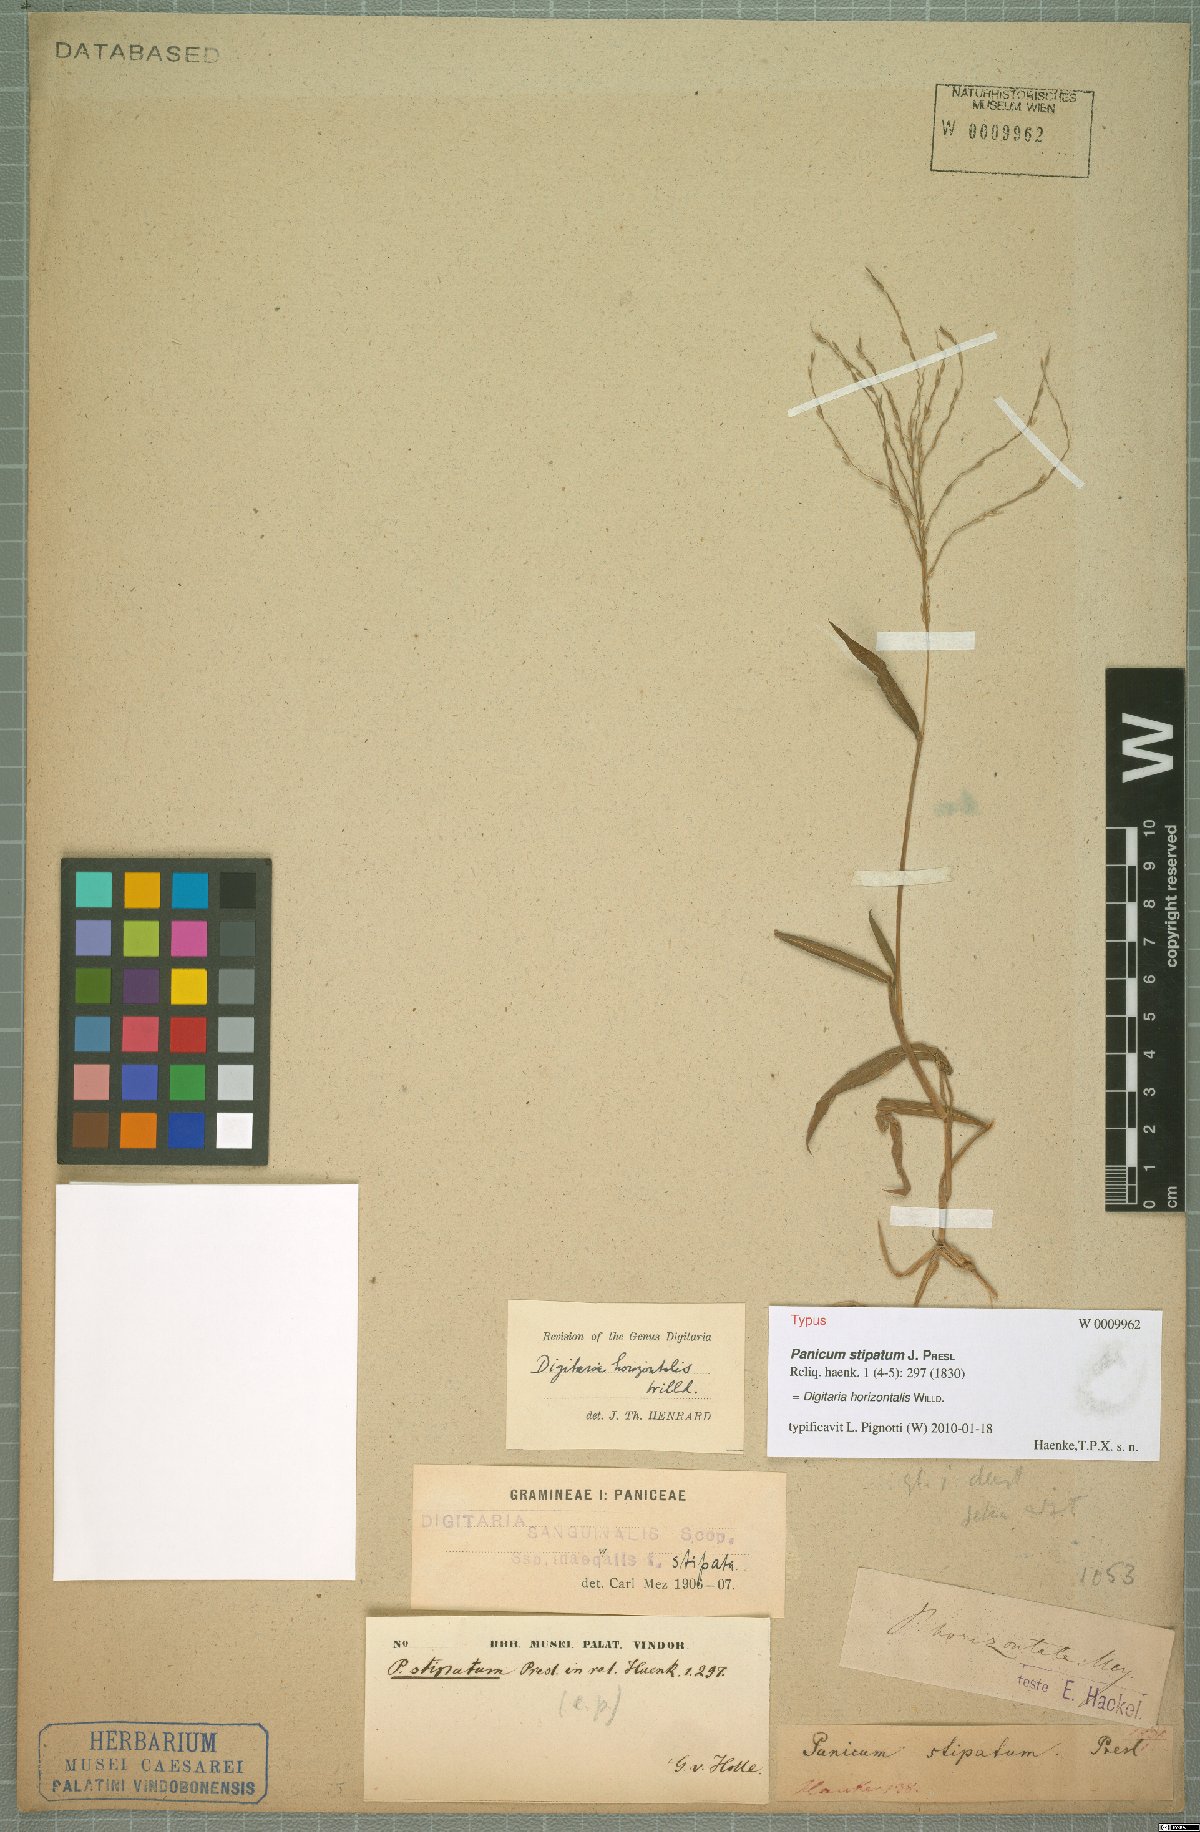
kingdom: Plantae
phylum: Tracheophyta
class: Liliopsida
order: Poales
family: Poaceae
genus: Digitaria
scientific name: Digitaria horizontalis
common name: Jamaican crabgrass
